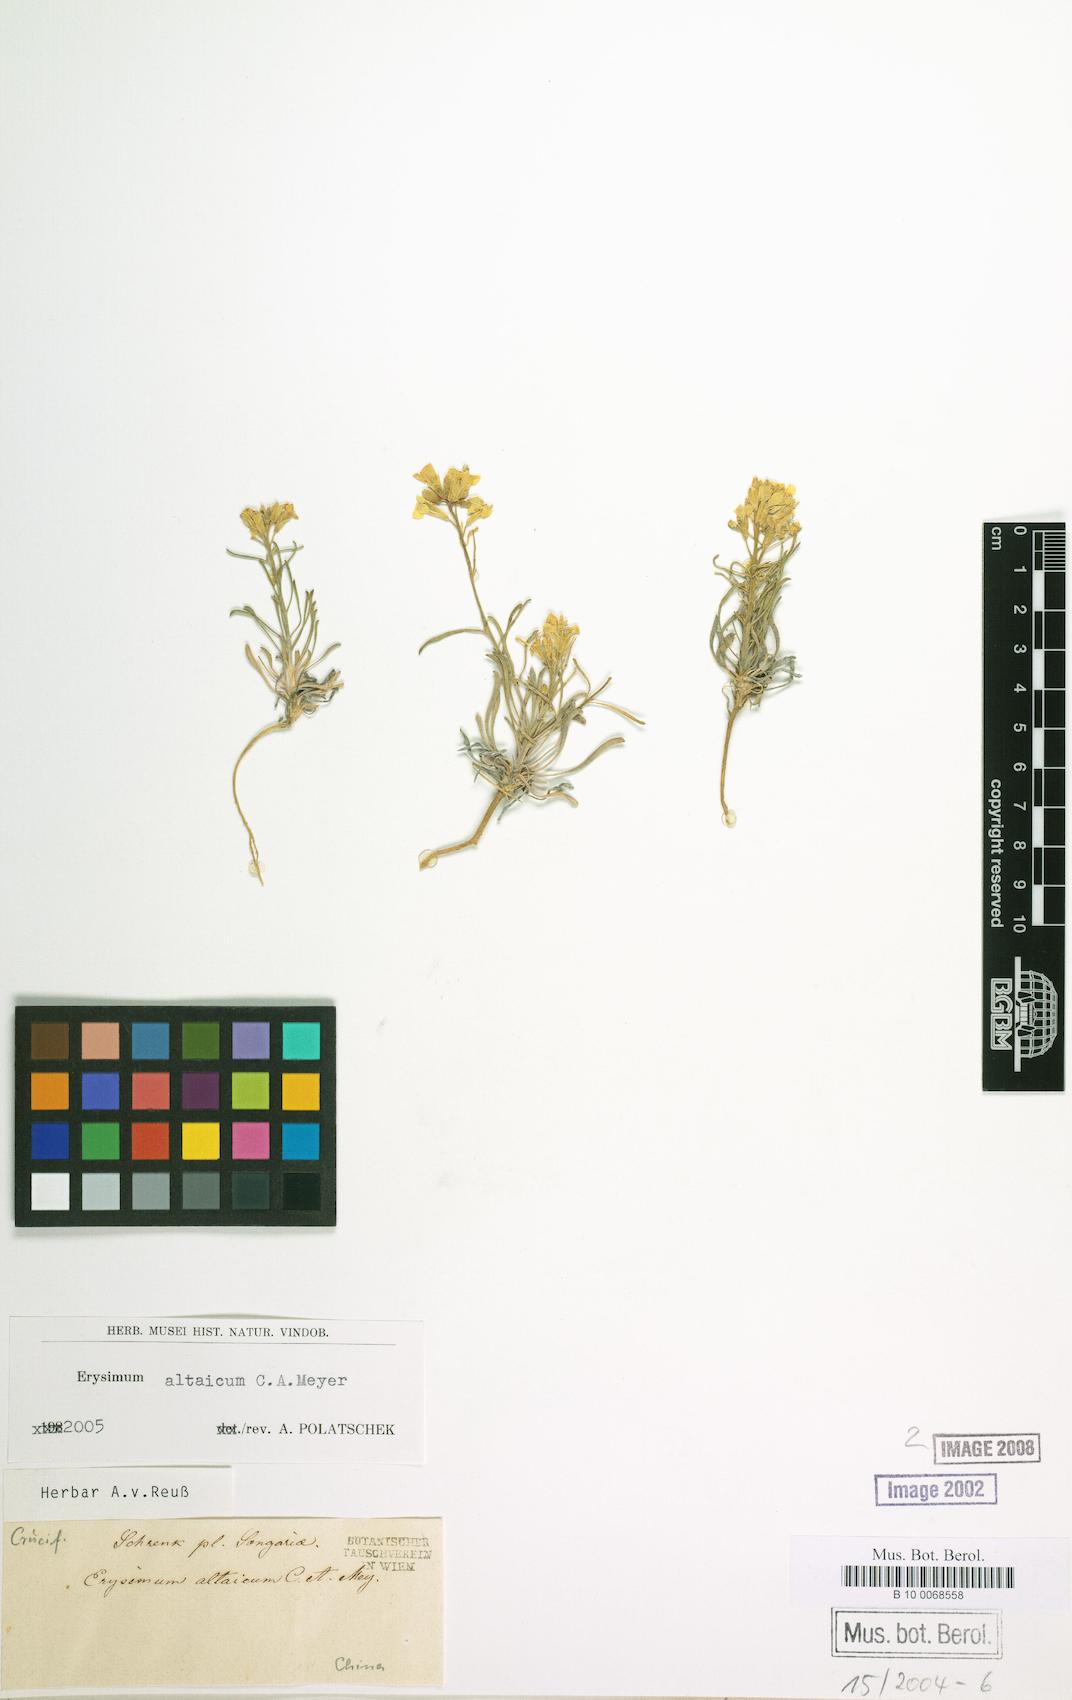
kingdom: Plantae
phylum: Tracheophyta
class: Magnoliopsida
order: Brassicales
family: Brassicaceae
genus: Erysimum
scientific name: Erysimum altaicum
